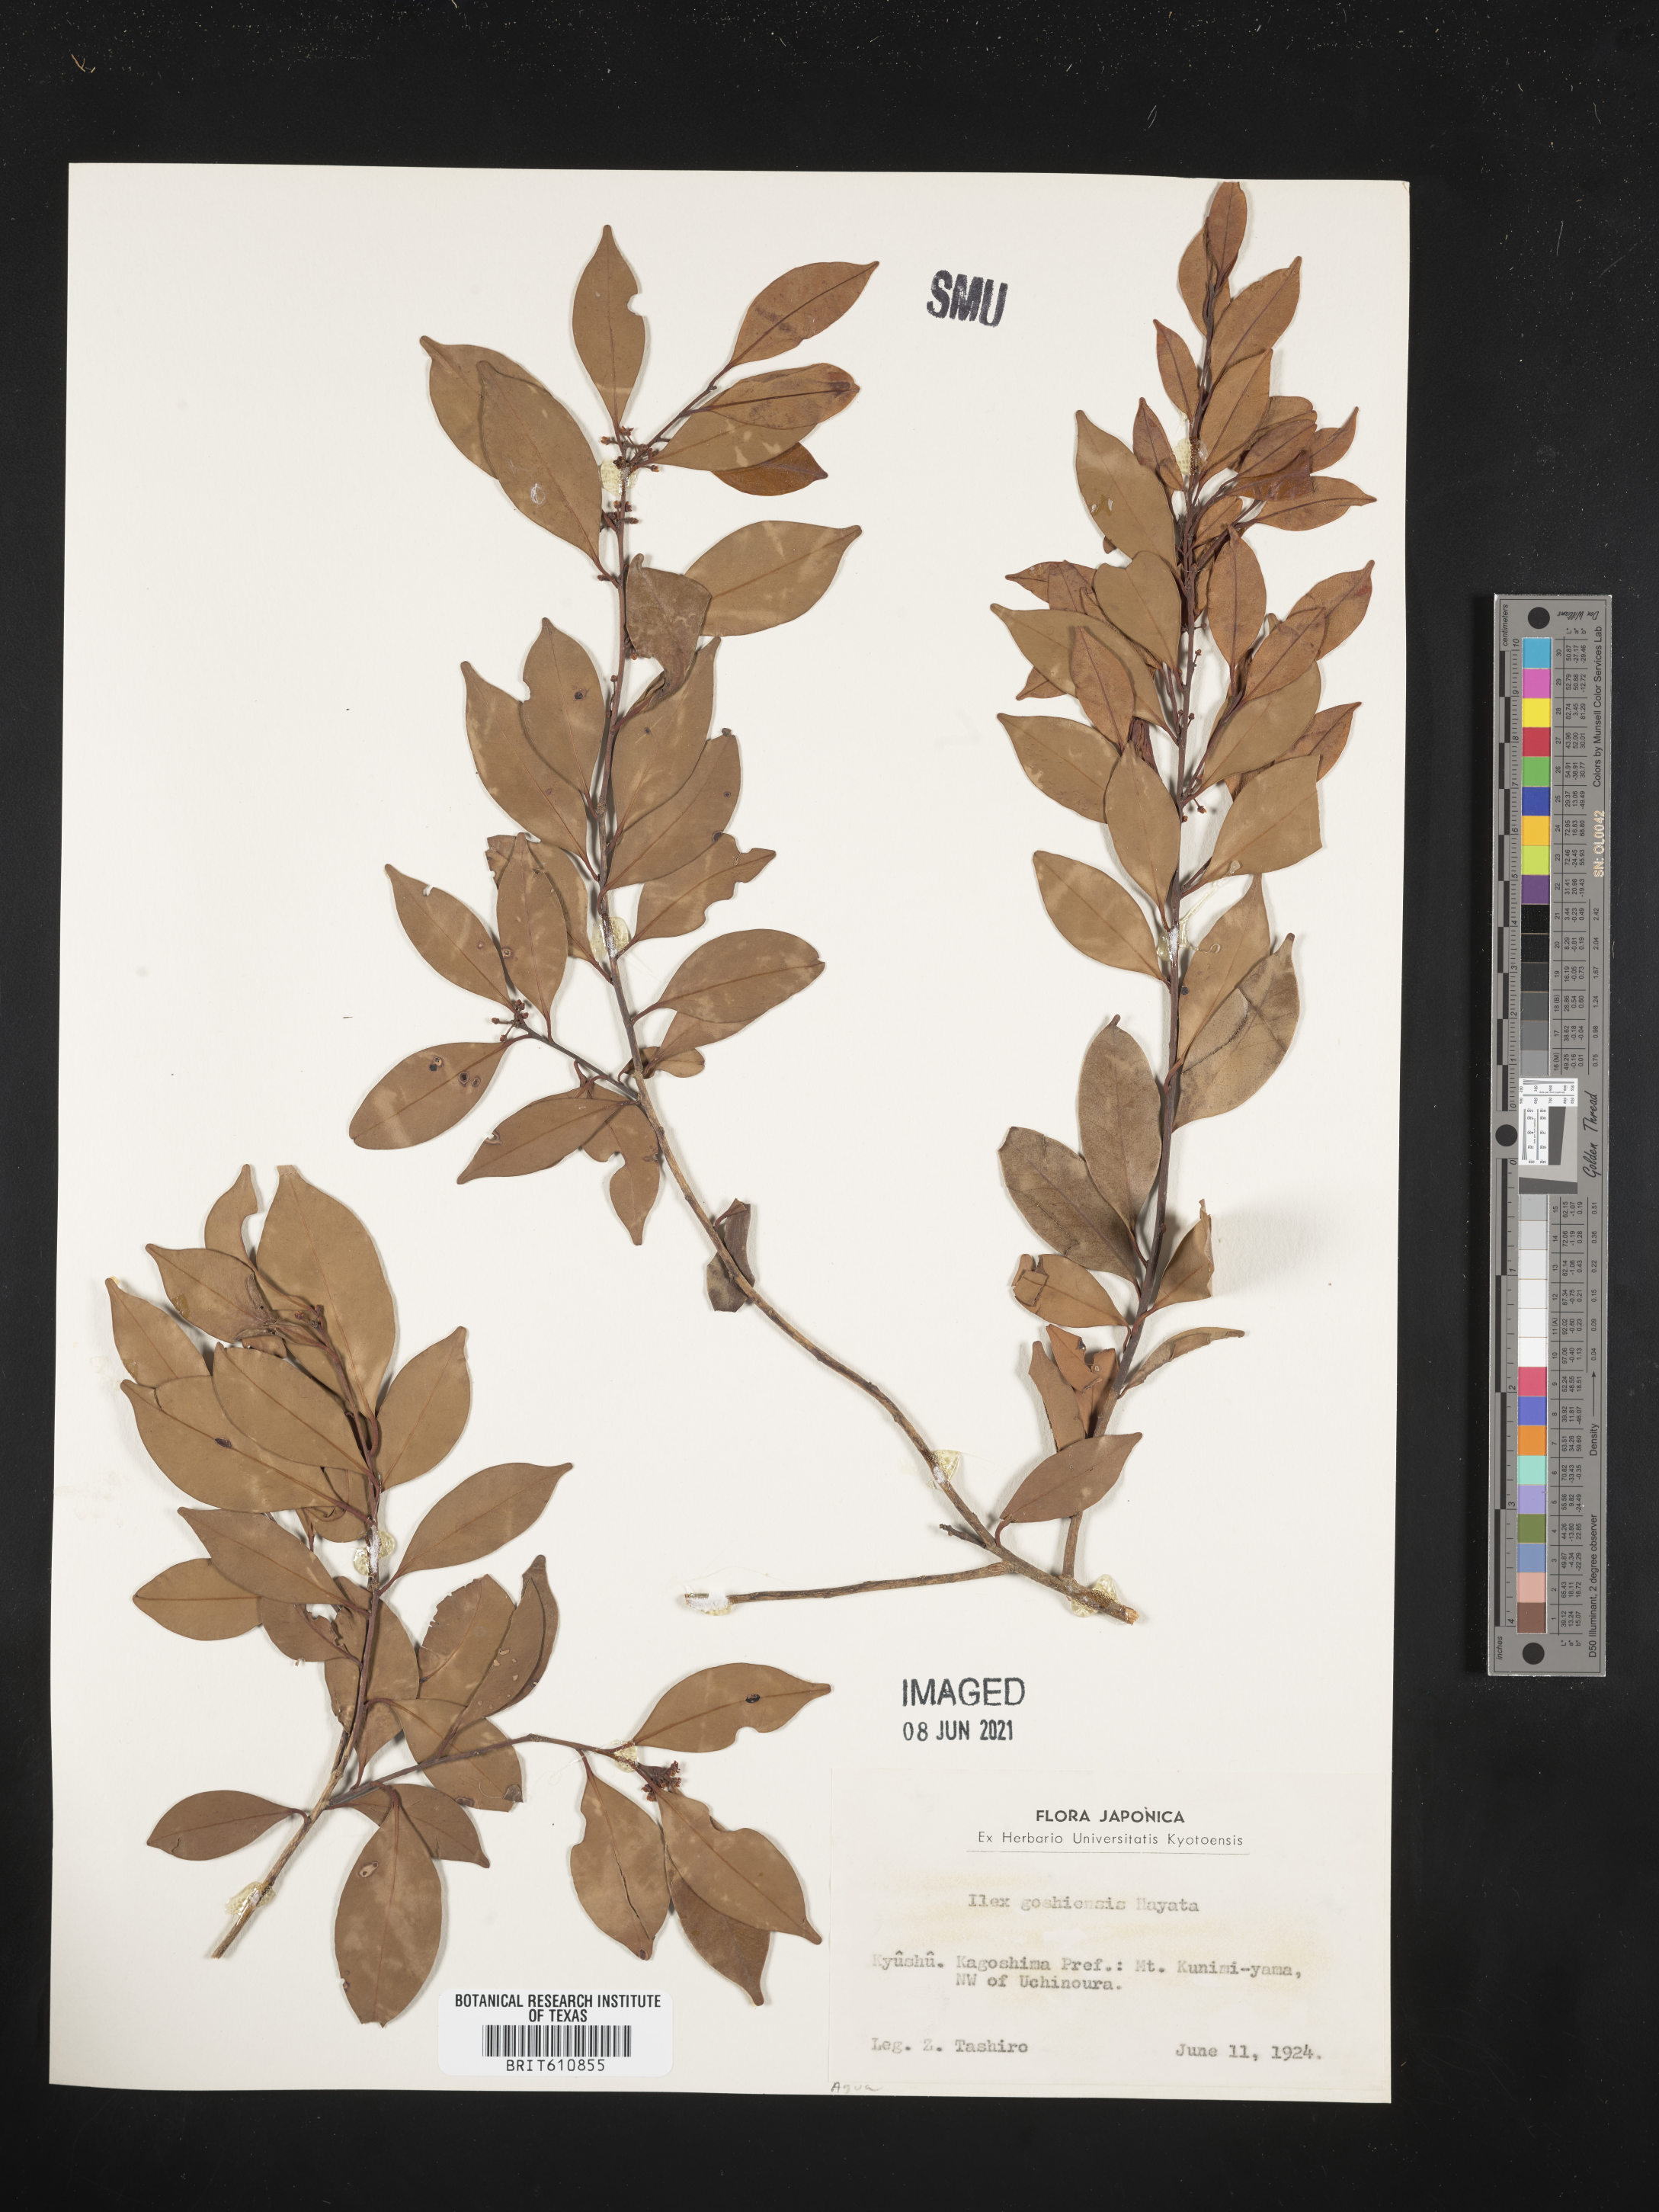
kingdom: Plantae
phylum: Tracheophyta
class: Magnoliopsida
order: Aquifoliales
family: Aquifoliaceae
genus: Ilex
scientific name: Ilex goshiensis
